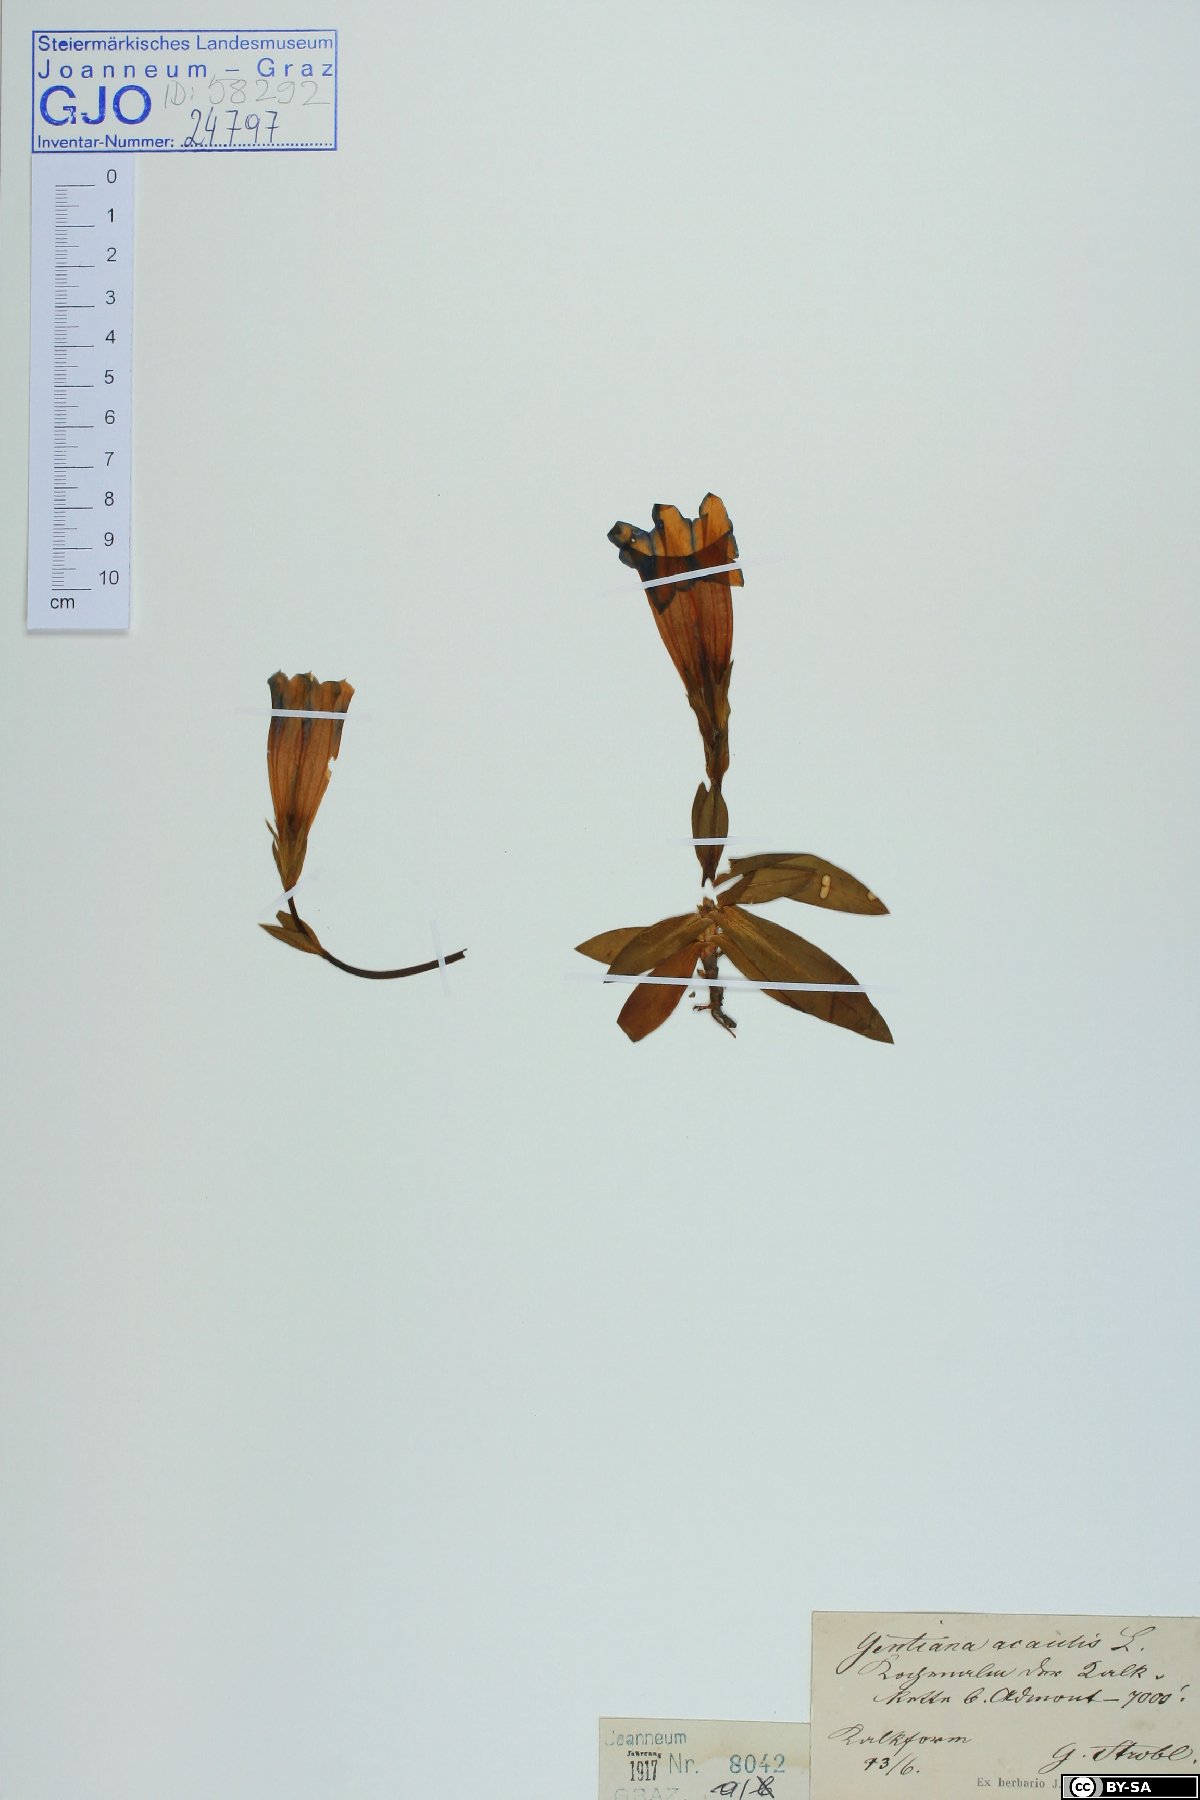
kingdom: Plantae
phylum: Tracheophyta
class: Magnoliopsida
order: Gentianales
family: Gentianaceae
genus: Gentiana
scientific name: Gentiana clusii
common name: Trumpet gentian
